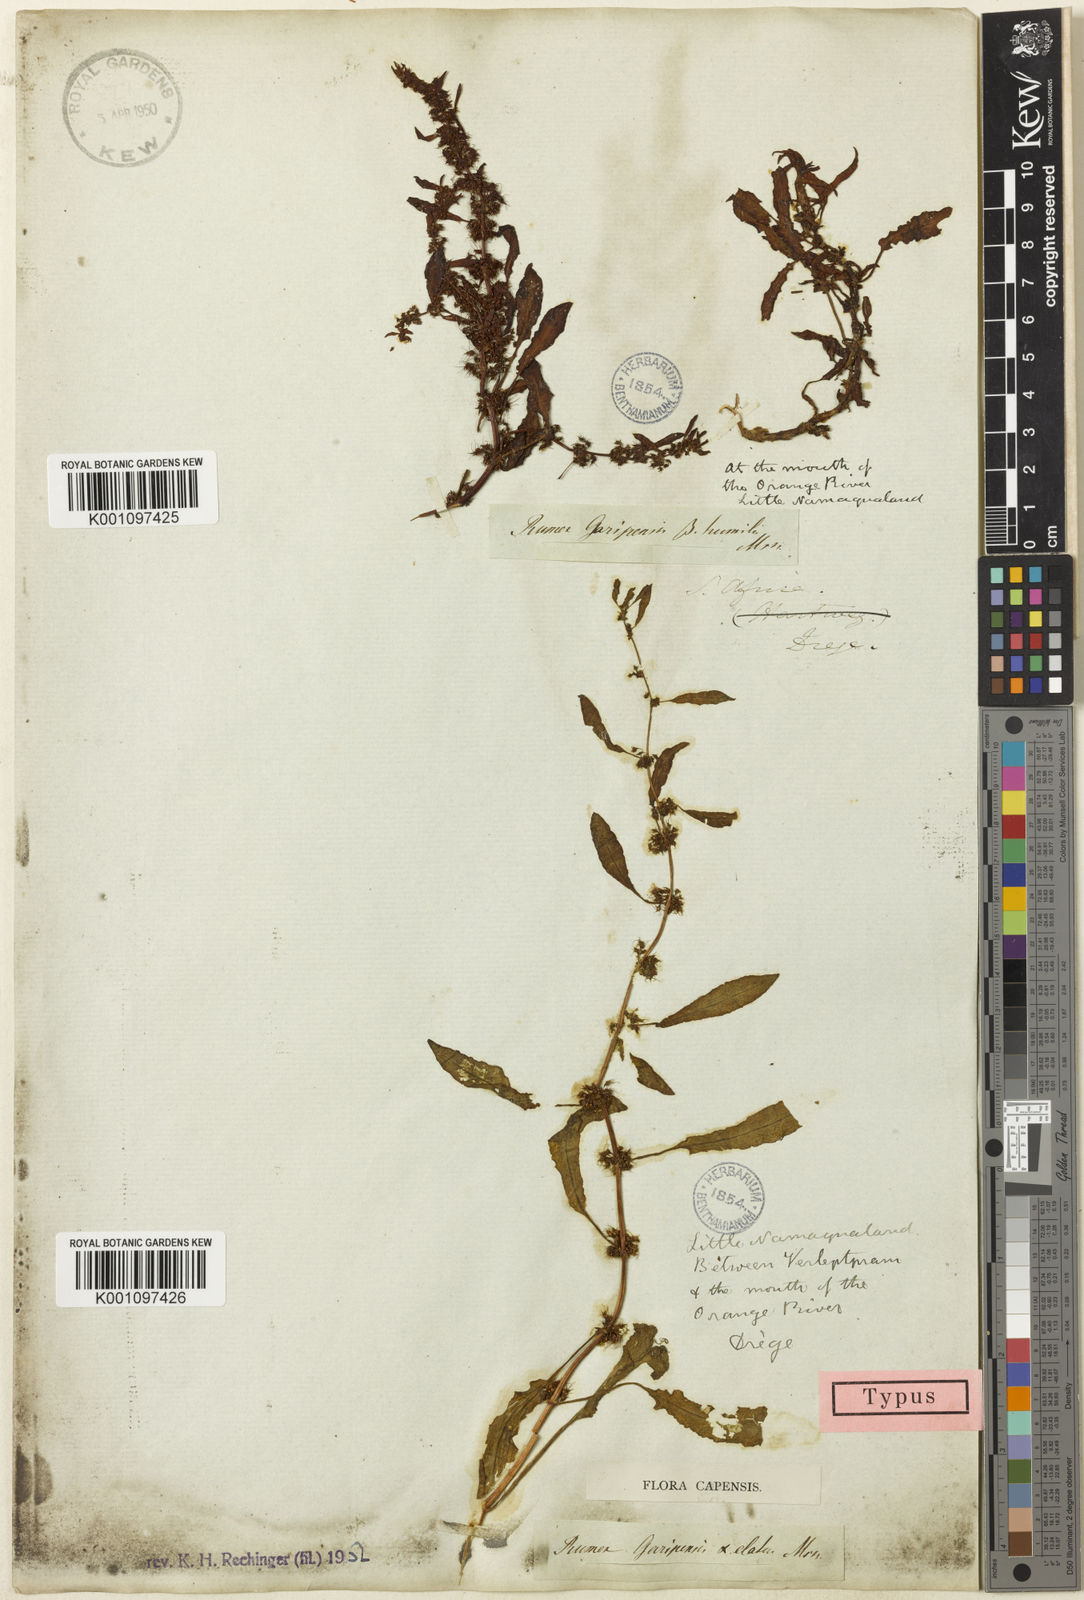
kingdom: Plantae
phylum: Tracheophyta
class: Magnoliopsida
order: Caryophyllales
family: Polygonaceae
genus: Rumex
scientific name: Rumex marschallianus
